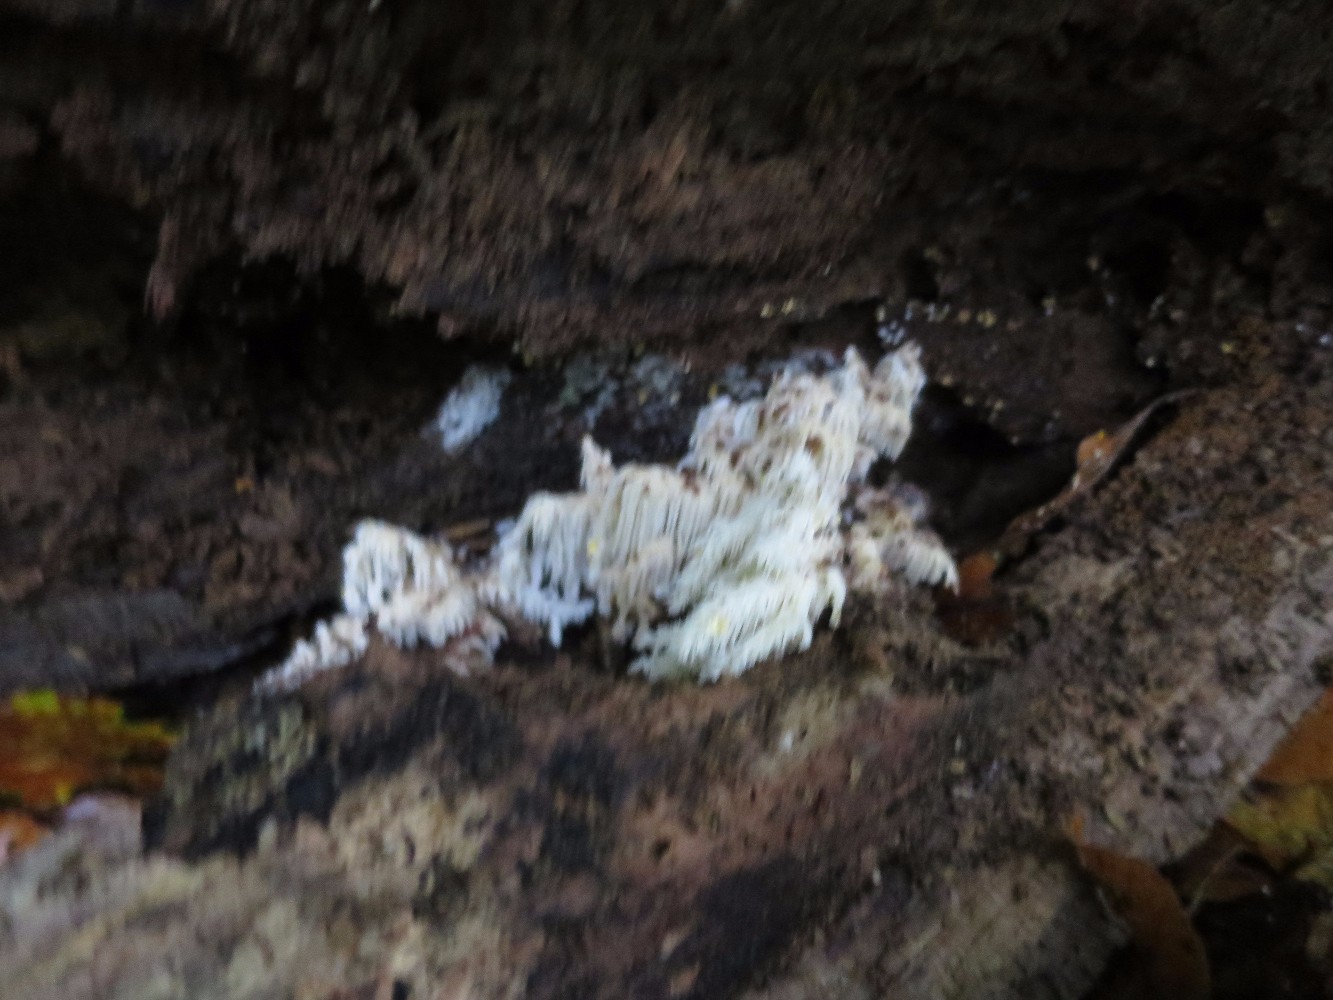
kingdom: Fungi
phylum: Basidiomycota
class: Agaricomycetes
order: Russulales
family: Hericiaceae
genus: Hericium
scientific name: Hericium coralloides
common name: koralpigsvamp
